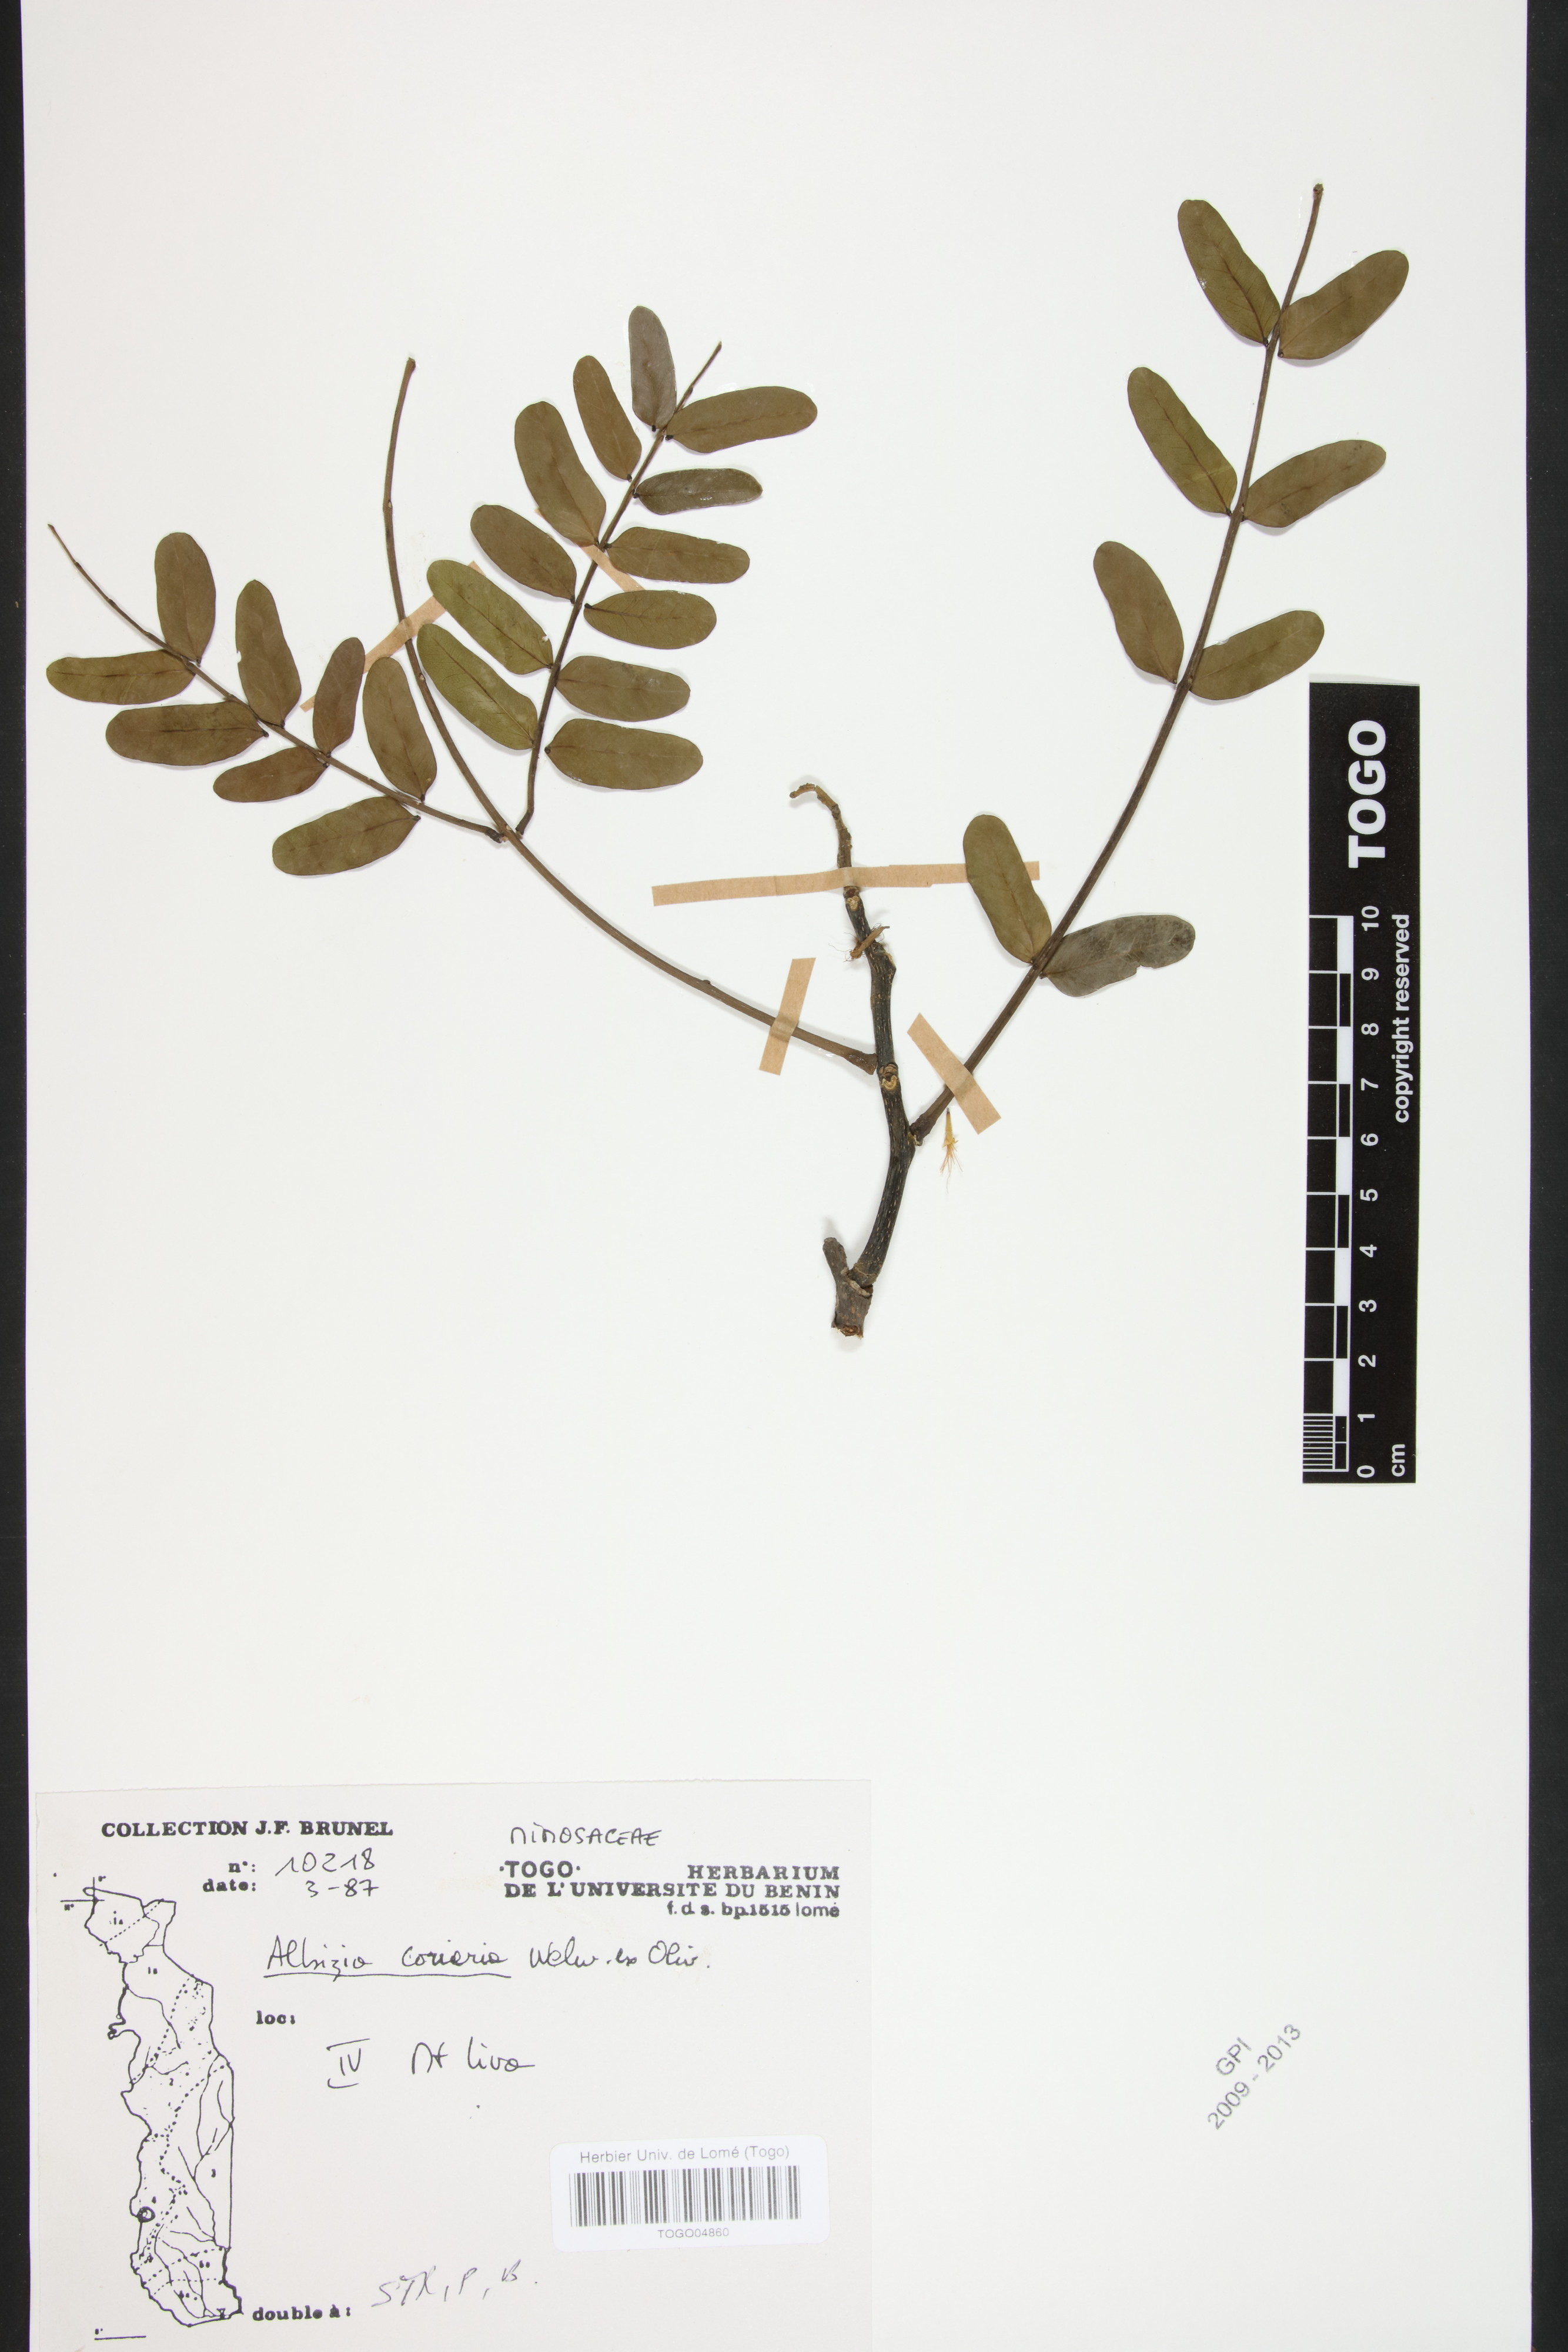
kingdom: Plantae
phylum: Tracheophyta
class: Magnoliopsida
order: Fabales
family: Fabaceae
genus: Albizia
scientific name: Albizia coriaria
